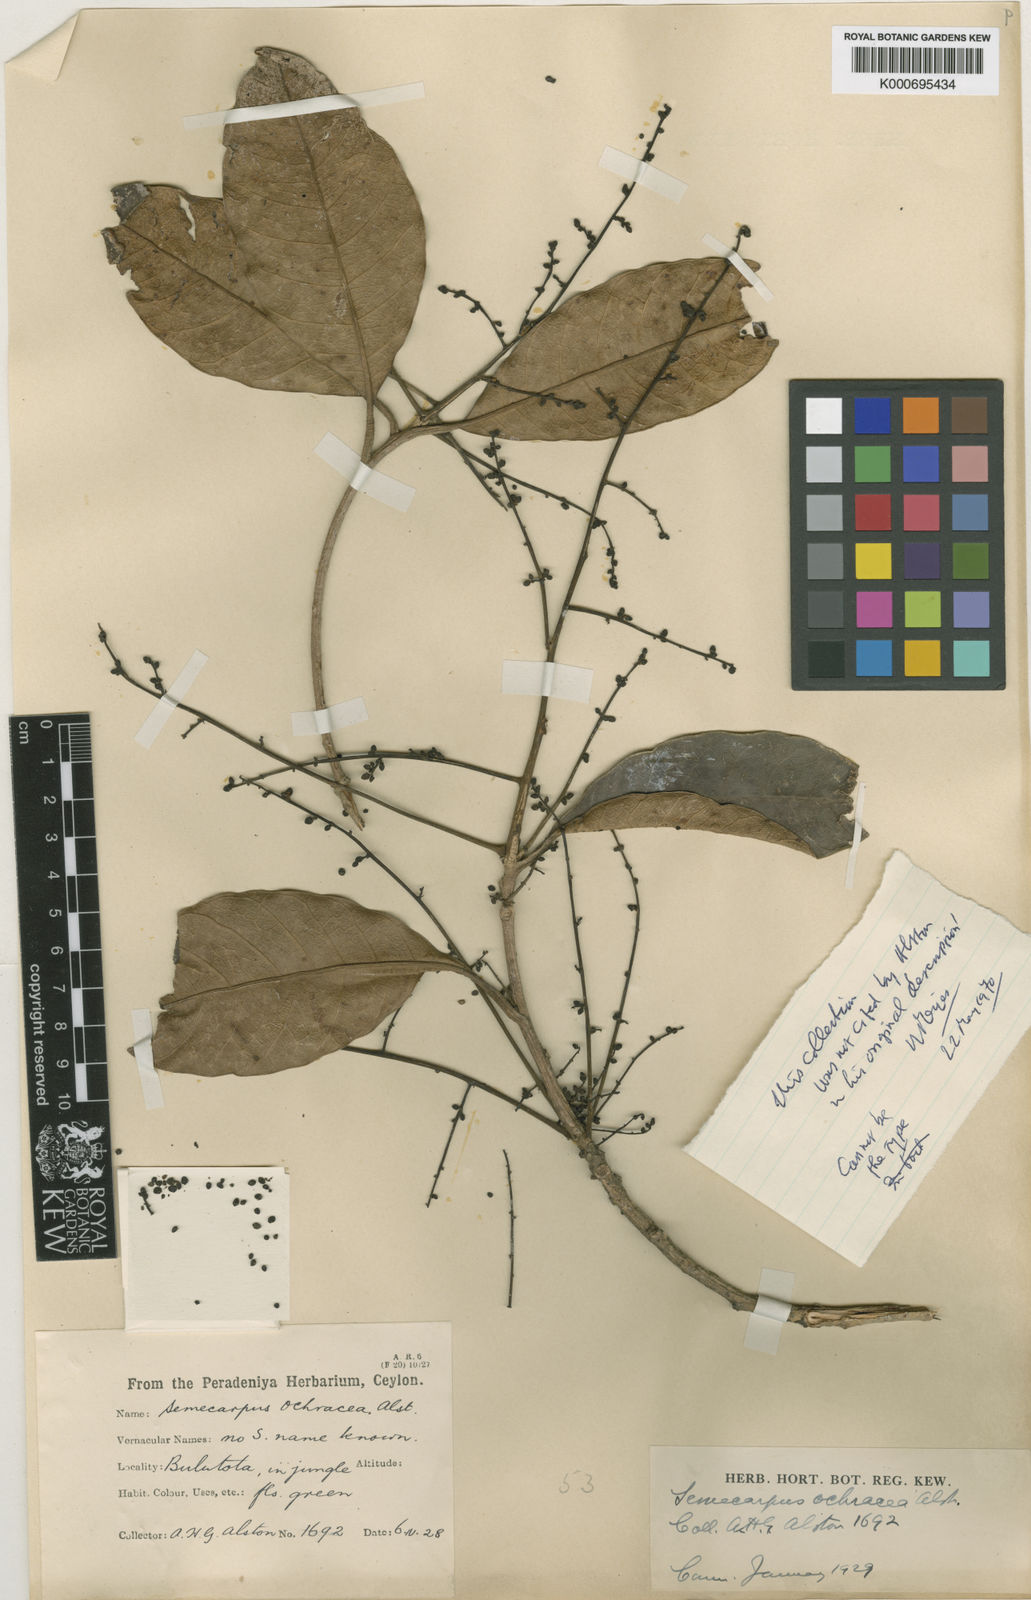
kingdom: Plantae
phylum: Tracheophyta
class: Magnoliopsida
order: Sapindales
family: Anacardiaceae
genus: Semecarpus
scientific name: Semecarpus ochraceus
